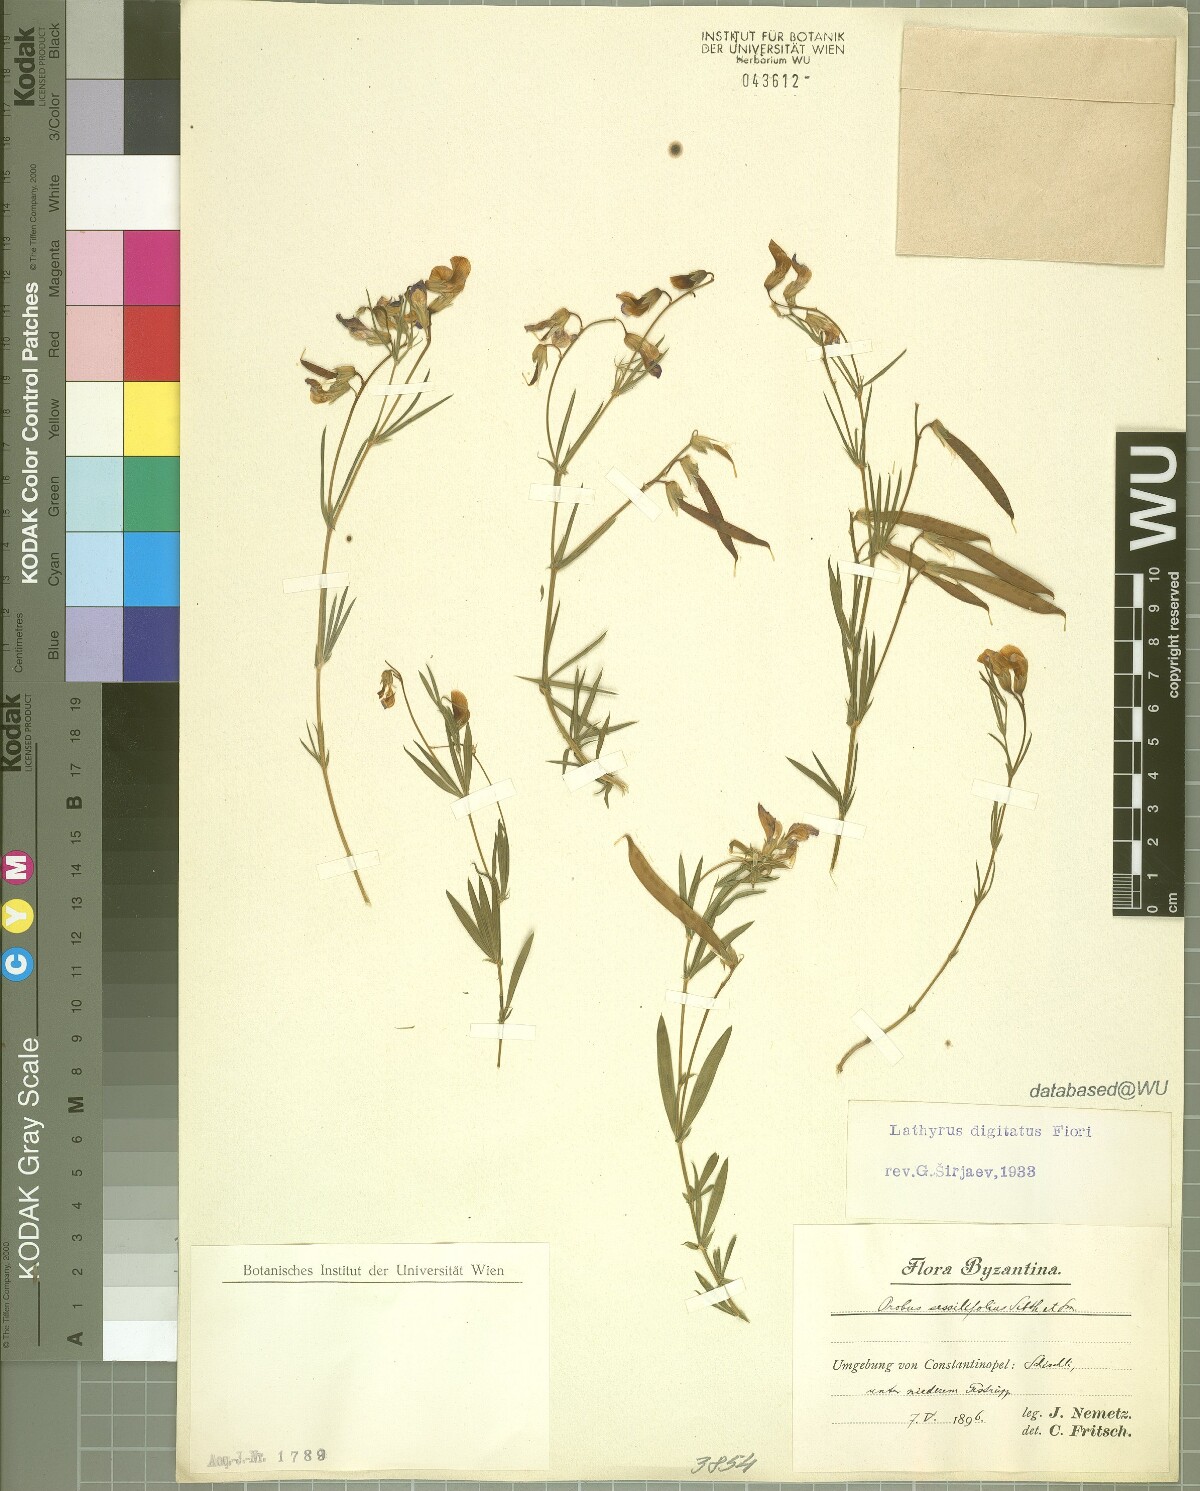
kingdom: Plantae
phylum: Tracheophyta
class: Magnoliopsida
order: Fabales
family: Fabaceae
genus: Lathyrus
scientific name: Lathyrus digitatus
